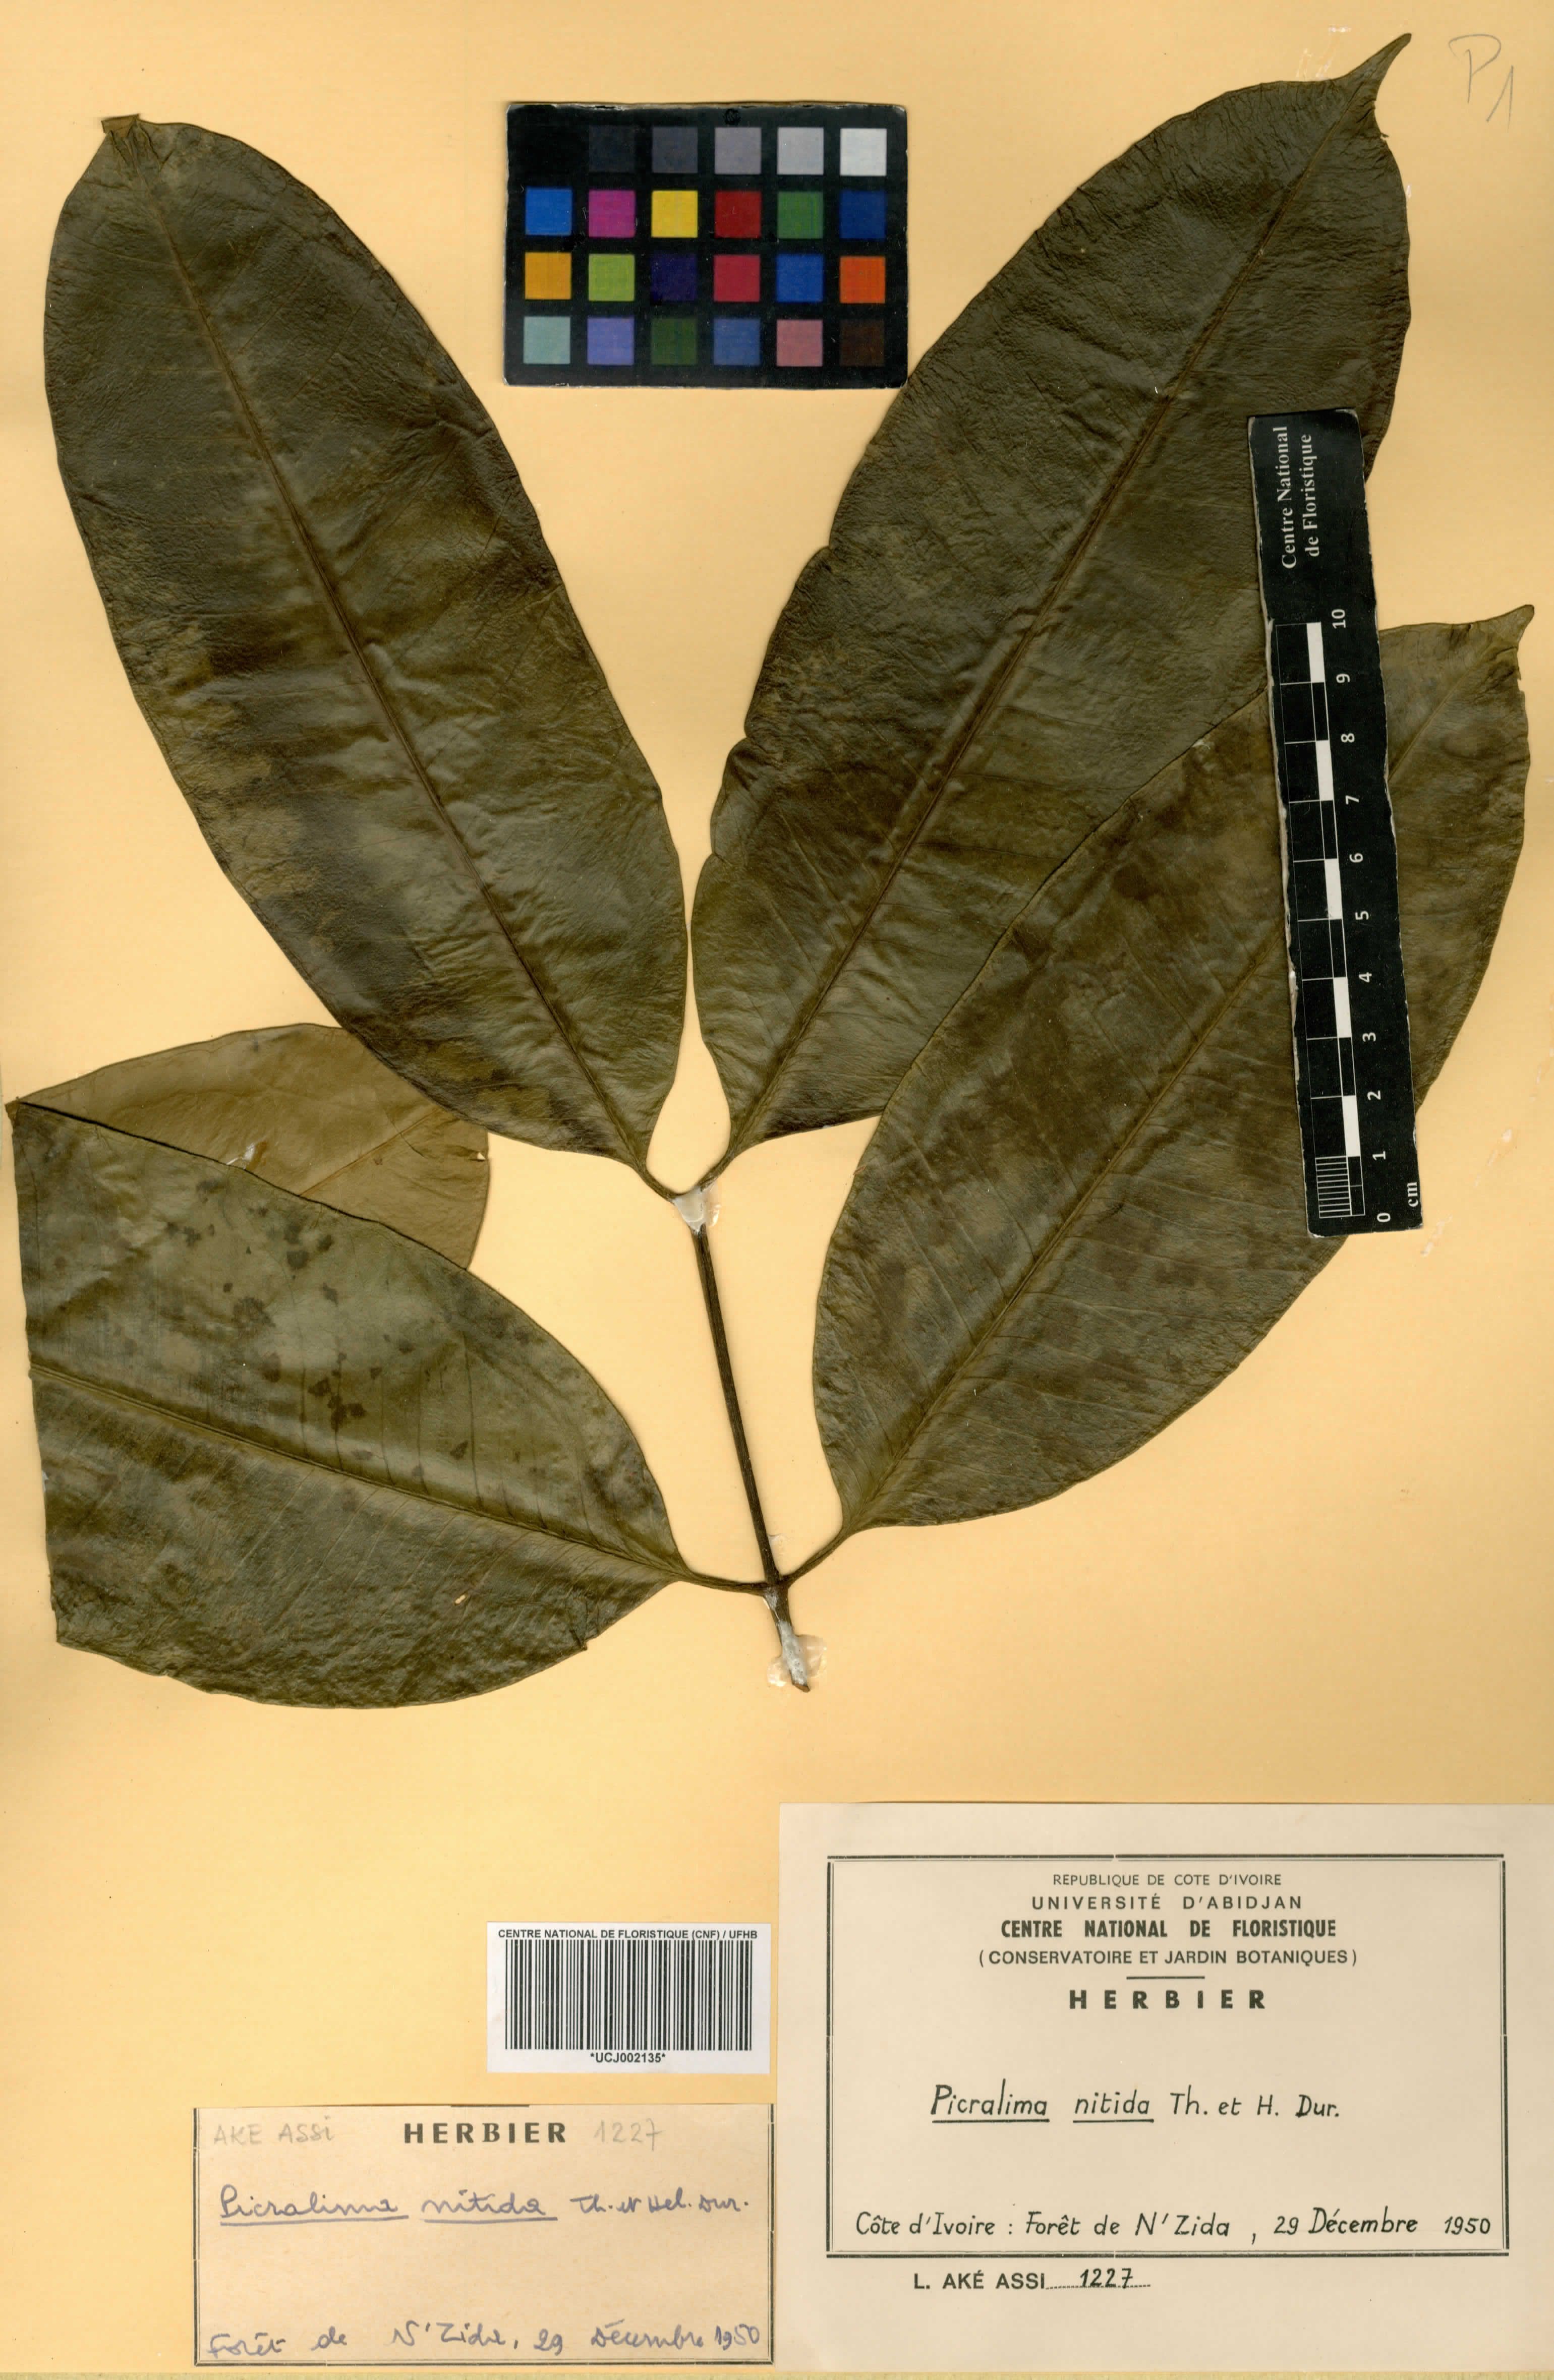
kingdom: Plantae
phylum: Tracheophyta
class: Magnoliopsida
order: Gentianales
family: Apocynaceae
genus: Picralima
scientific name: Picralima nitida
